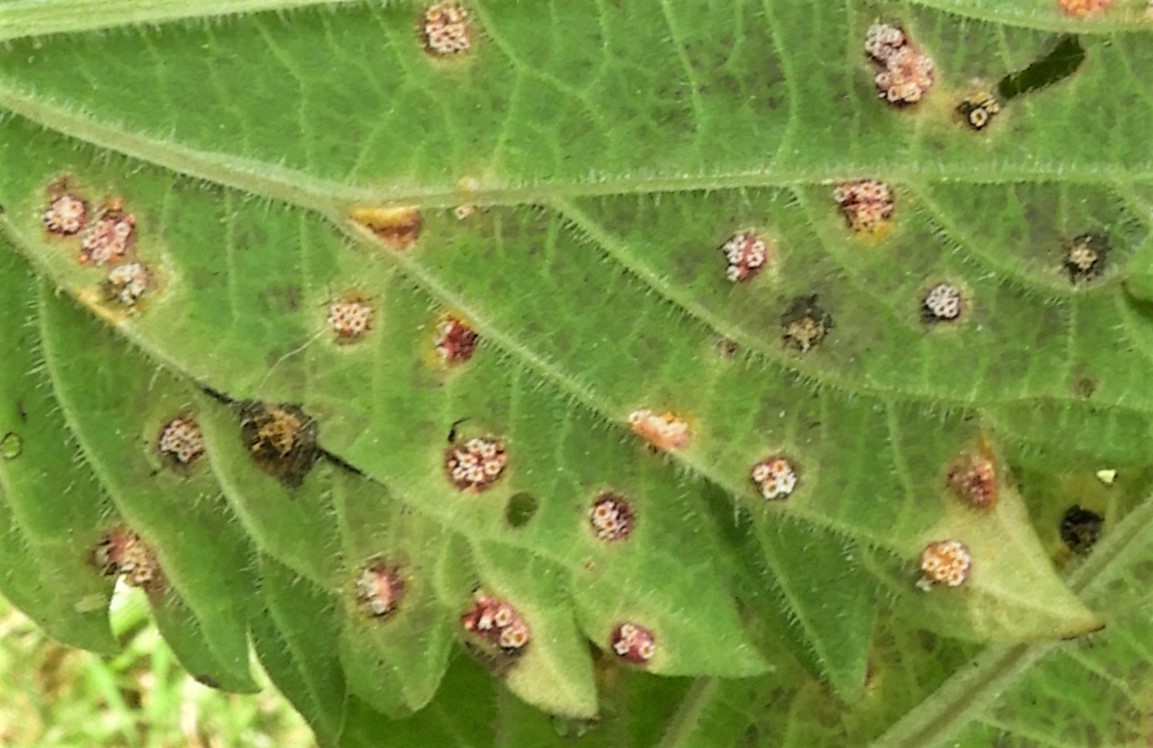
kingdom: Fungi
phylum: Basidiomycota
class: Pucciniomycetes
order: Pucciniales
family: Pucciniaceae
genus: Puccinia
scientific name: Puccinia urticata
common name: nældegalle-tvecellerust
